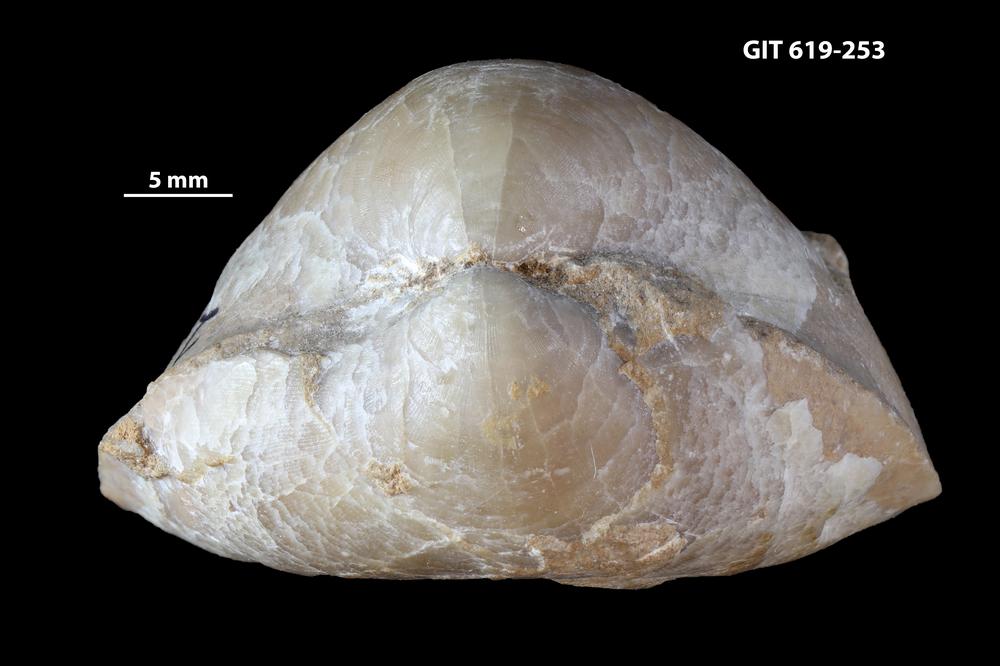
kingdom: Animalia
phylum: Brachiopoda
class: Rhynchonellata
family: Porambonitidae
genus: Porambonites
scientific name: Porambonites
